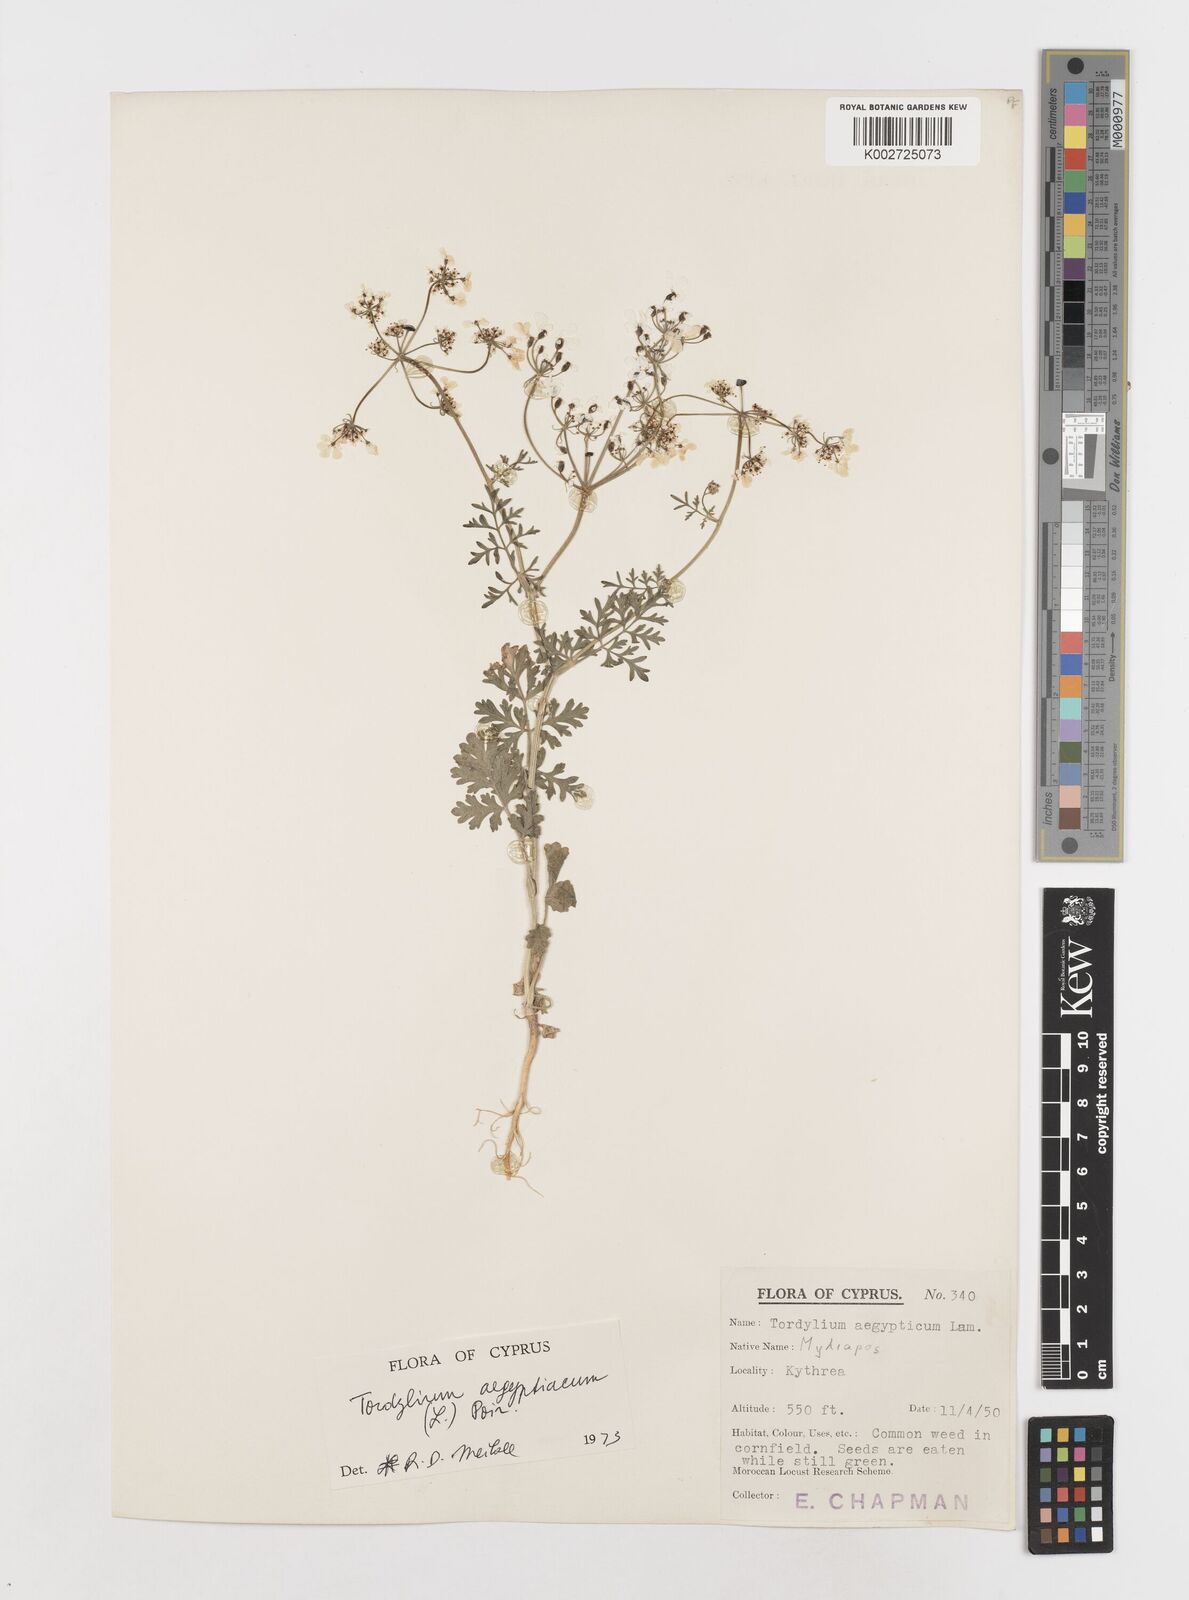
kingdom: Plantae
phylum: Tracheophyta
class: Magnoliopsida
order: Apiales
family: Apiaceae
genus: Tordylium
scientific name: Tordylium aegyptiacum
